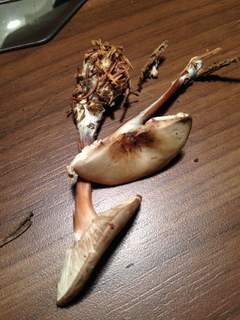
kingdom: Fungi
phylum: Basidiomycota
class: Agaricomycetes
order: Agaricales
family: Omphalotaceae
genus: Rhodocollybia
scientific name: Rhodocollybia asema
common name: horngrå fladhat
